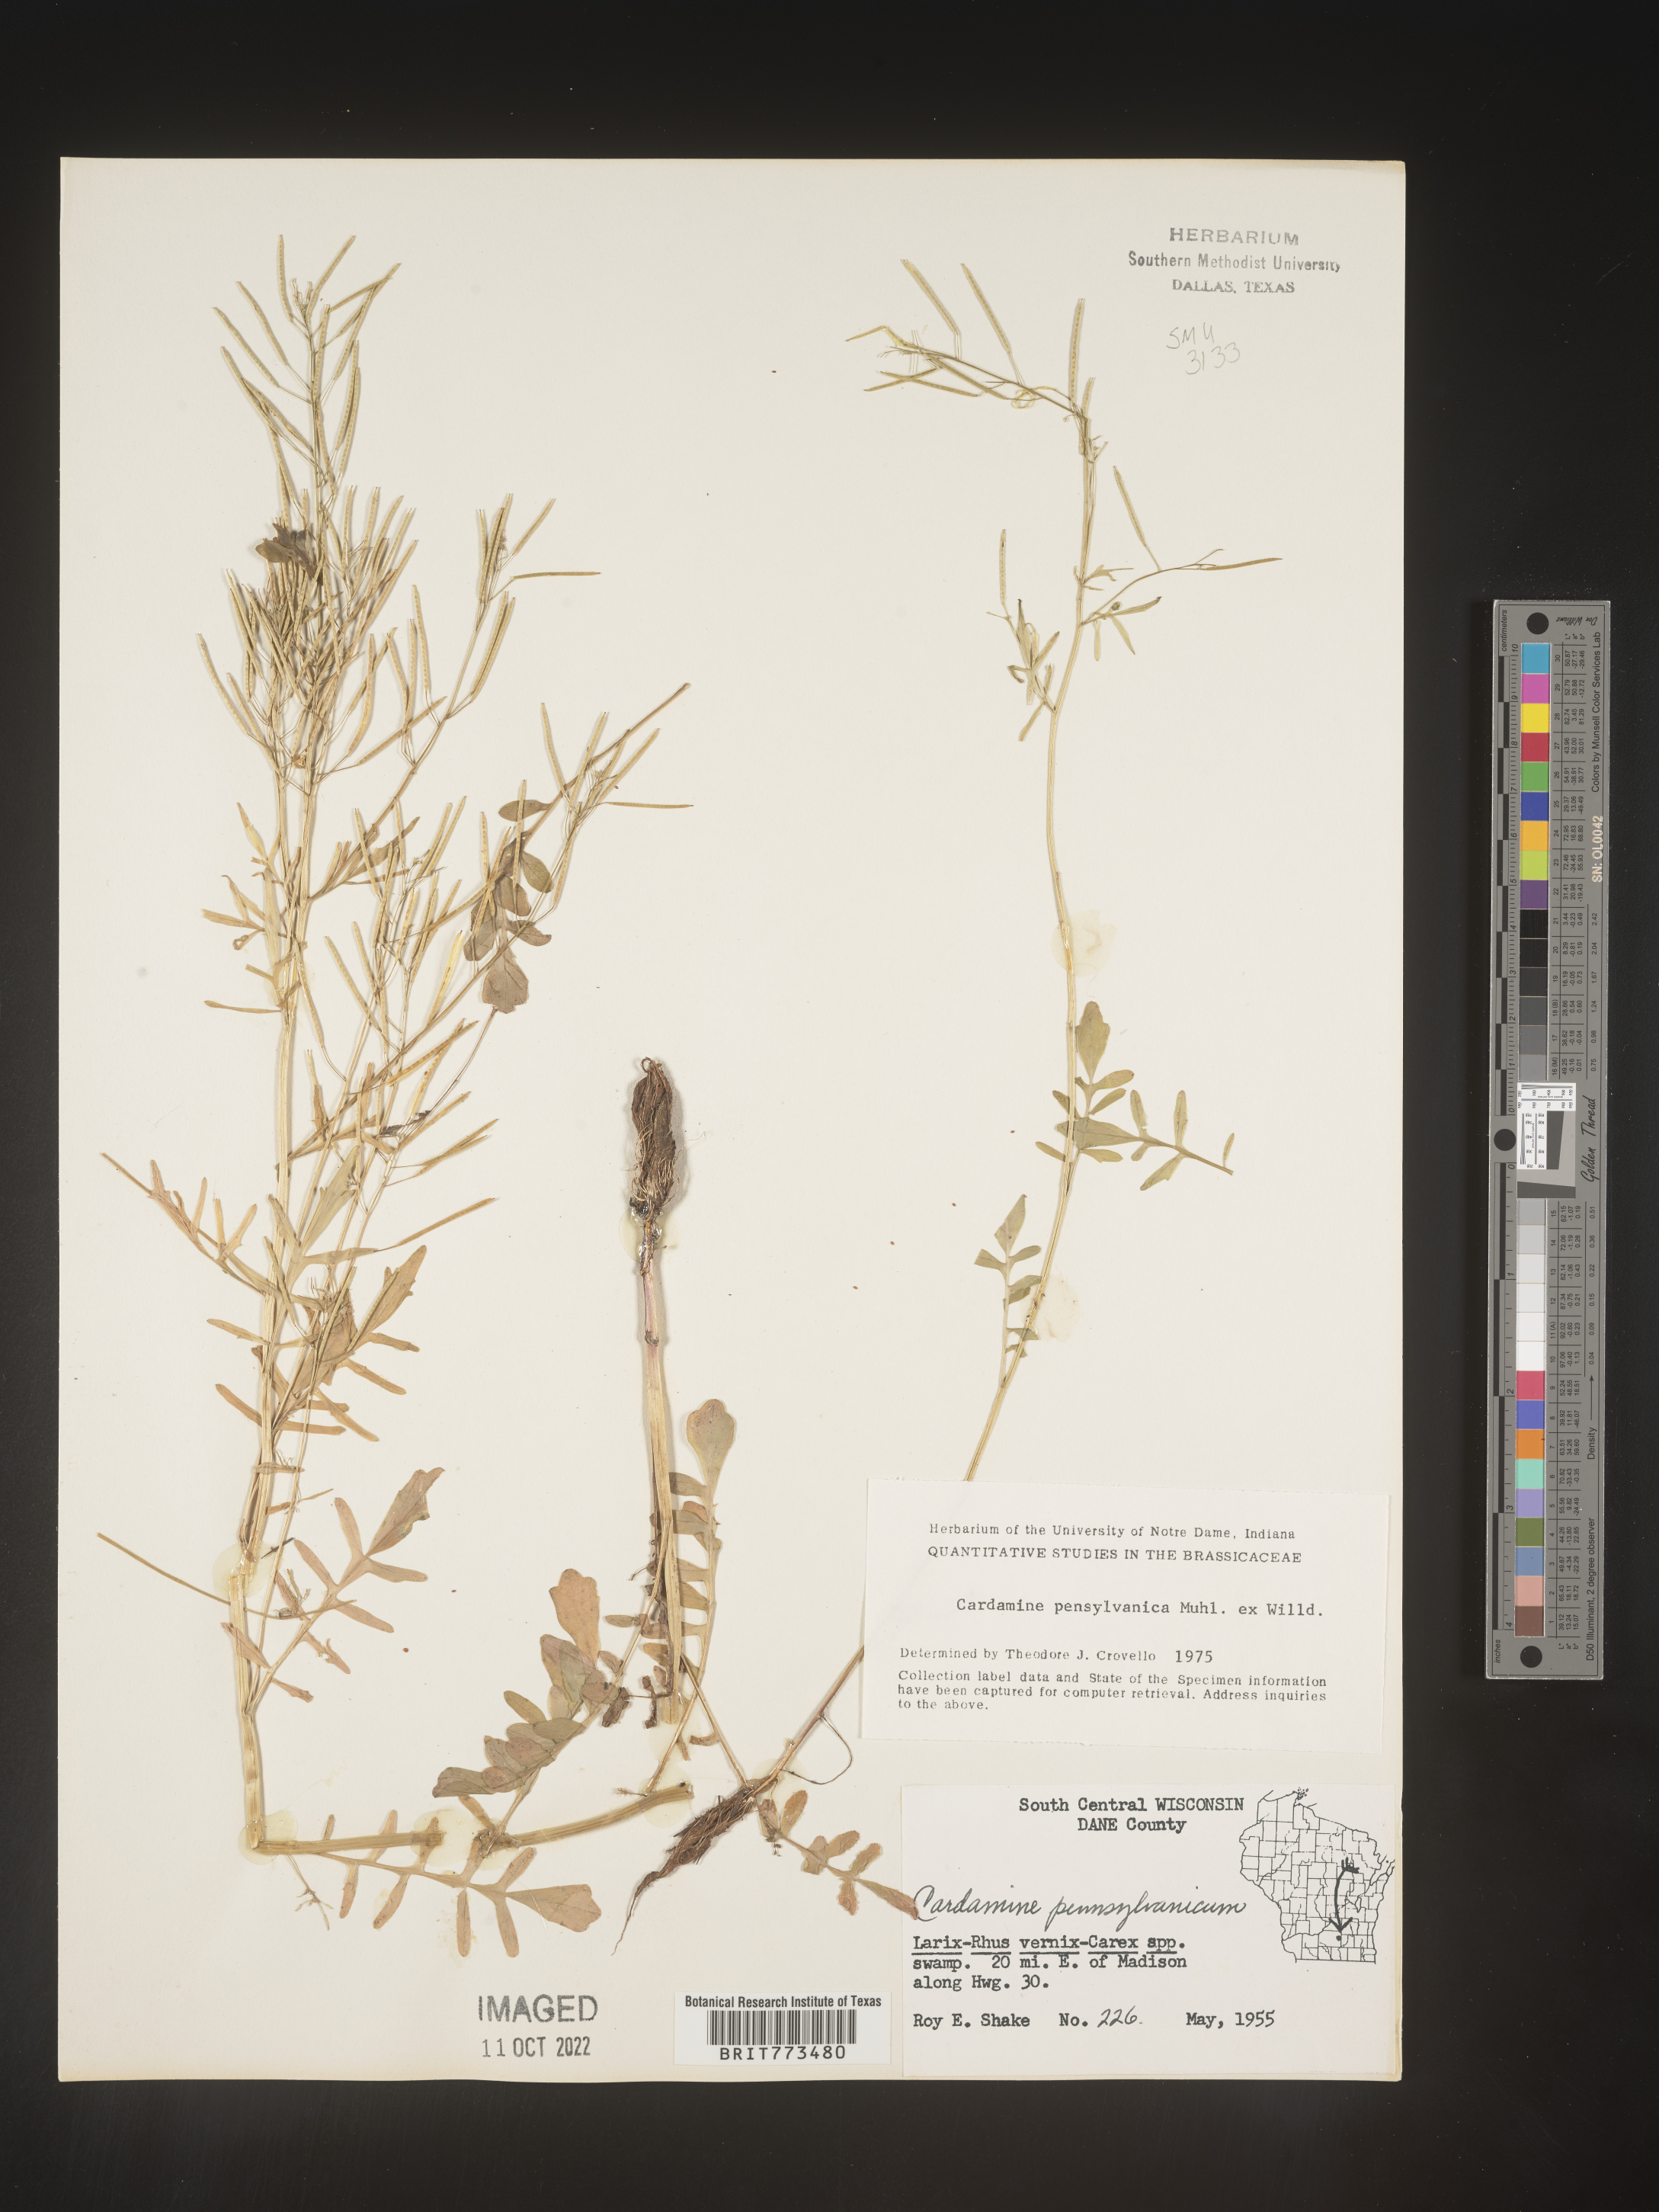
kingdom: Plantae
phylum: Tracheophyta
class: Magnoliopsida
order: Brassicales
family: Brassicaceae
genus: Cardamine
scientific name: Cardamine pensylvanica
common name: Pennsylvania bittercress
